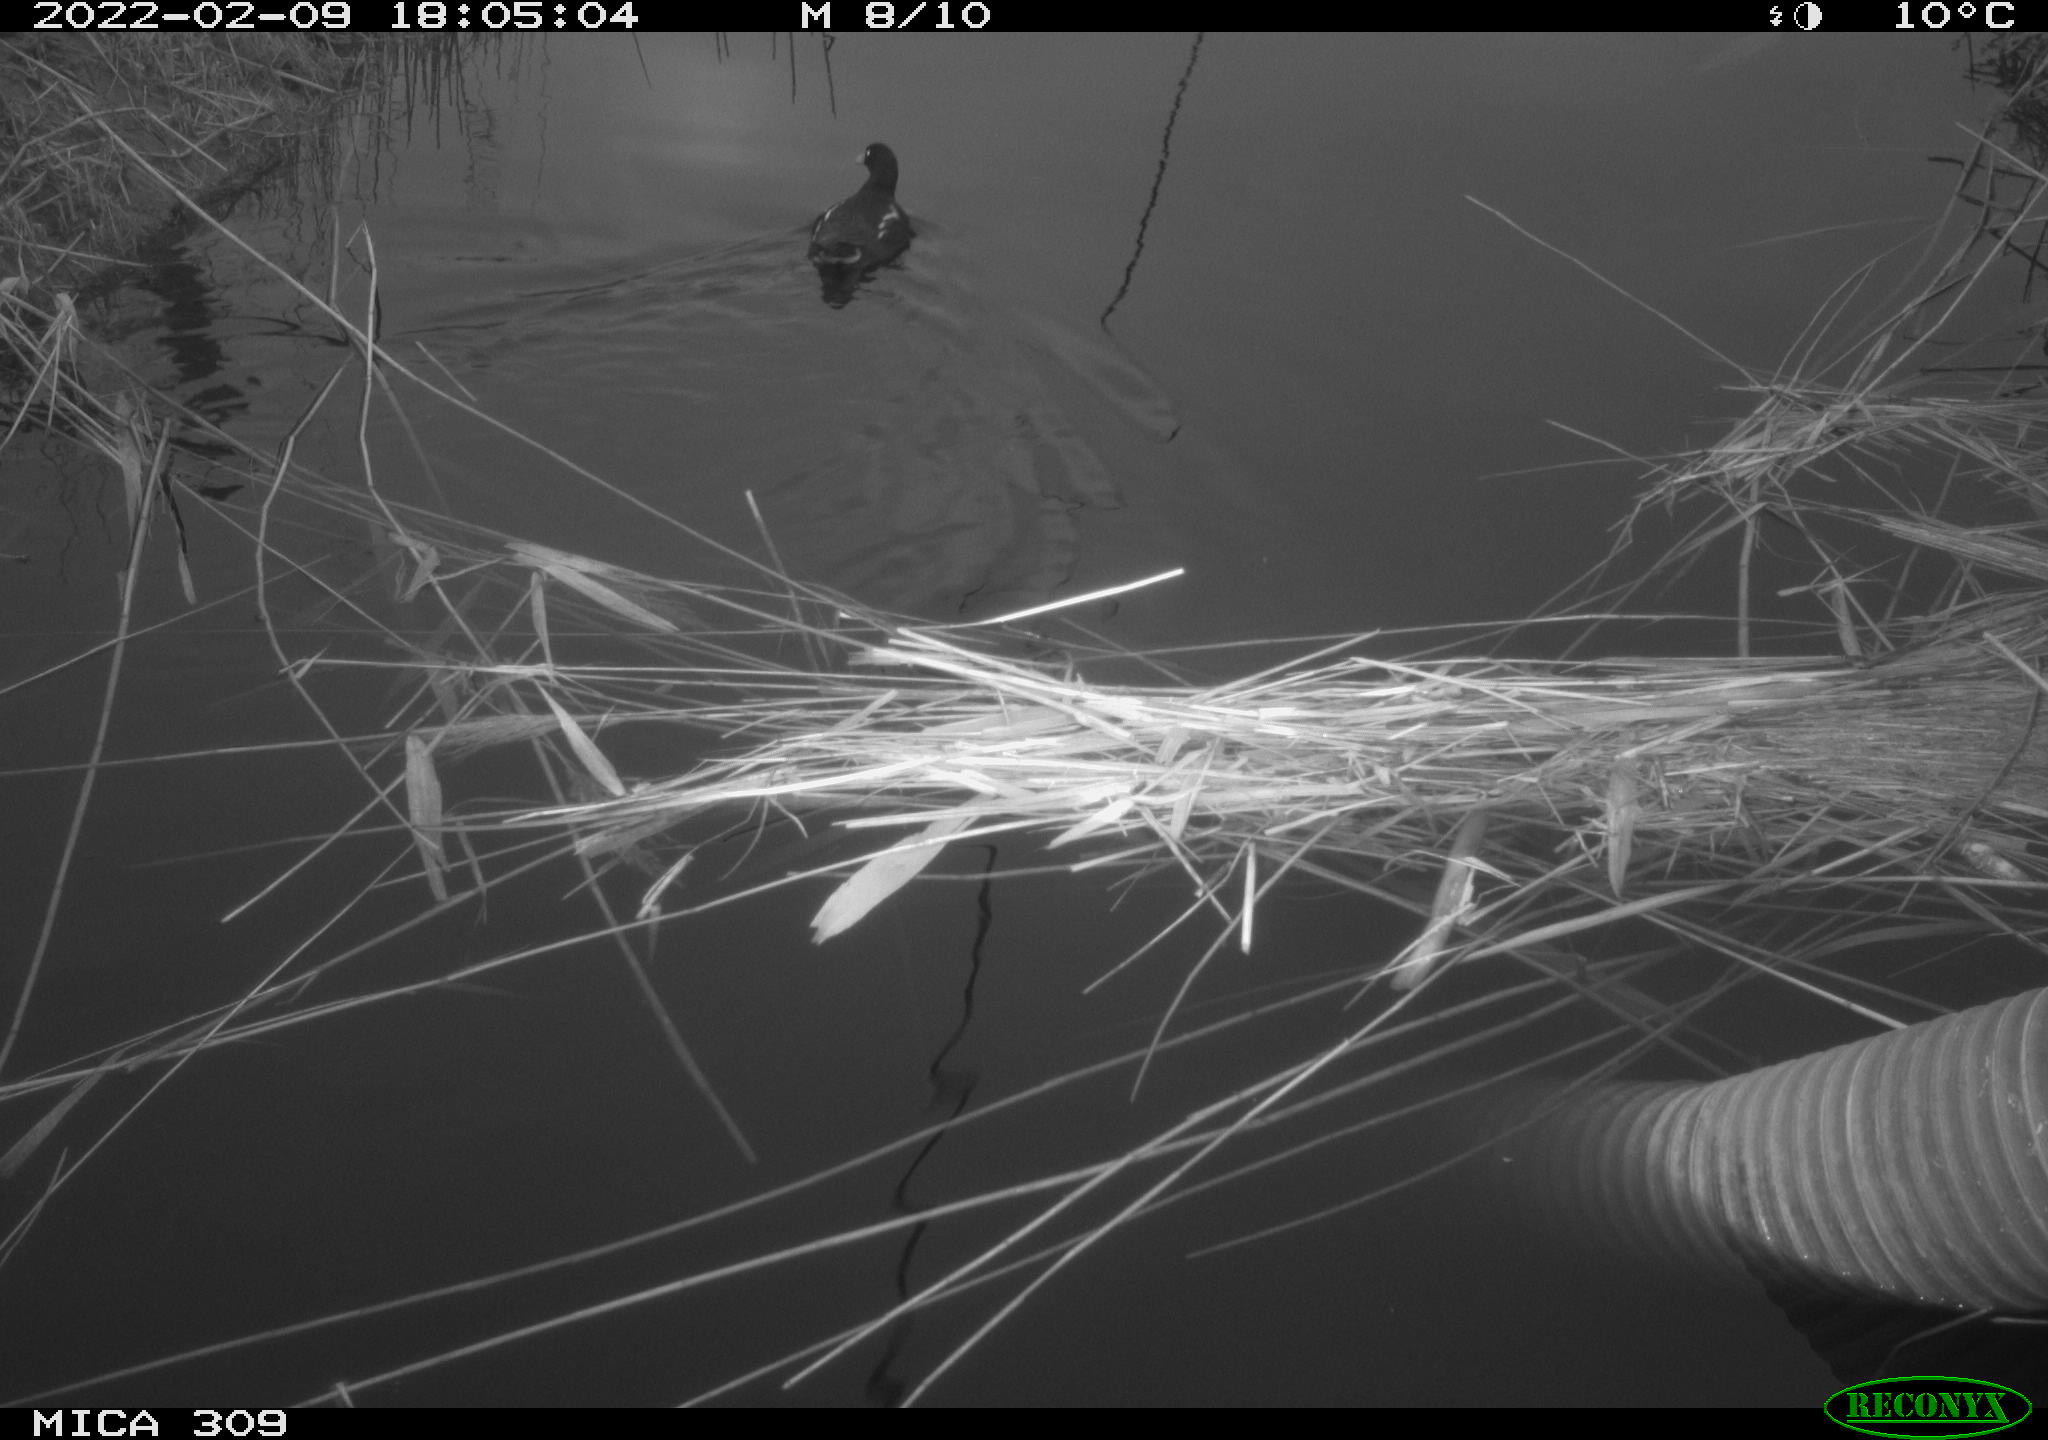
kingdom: Animalia
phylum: Chordata
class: Aves
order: Gruiformes
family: Rallidae
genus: Gallinula
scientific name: Gallinula chloropus
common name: Common moorhen
